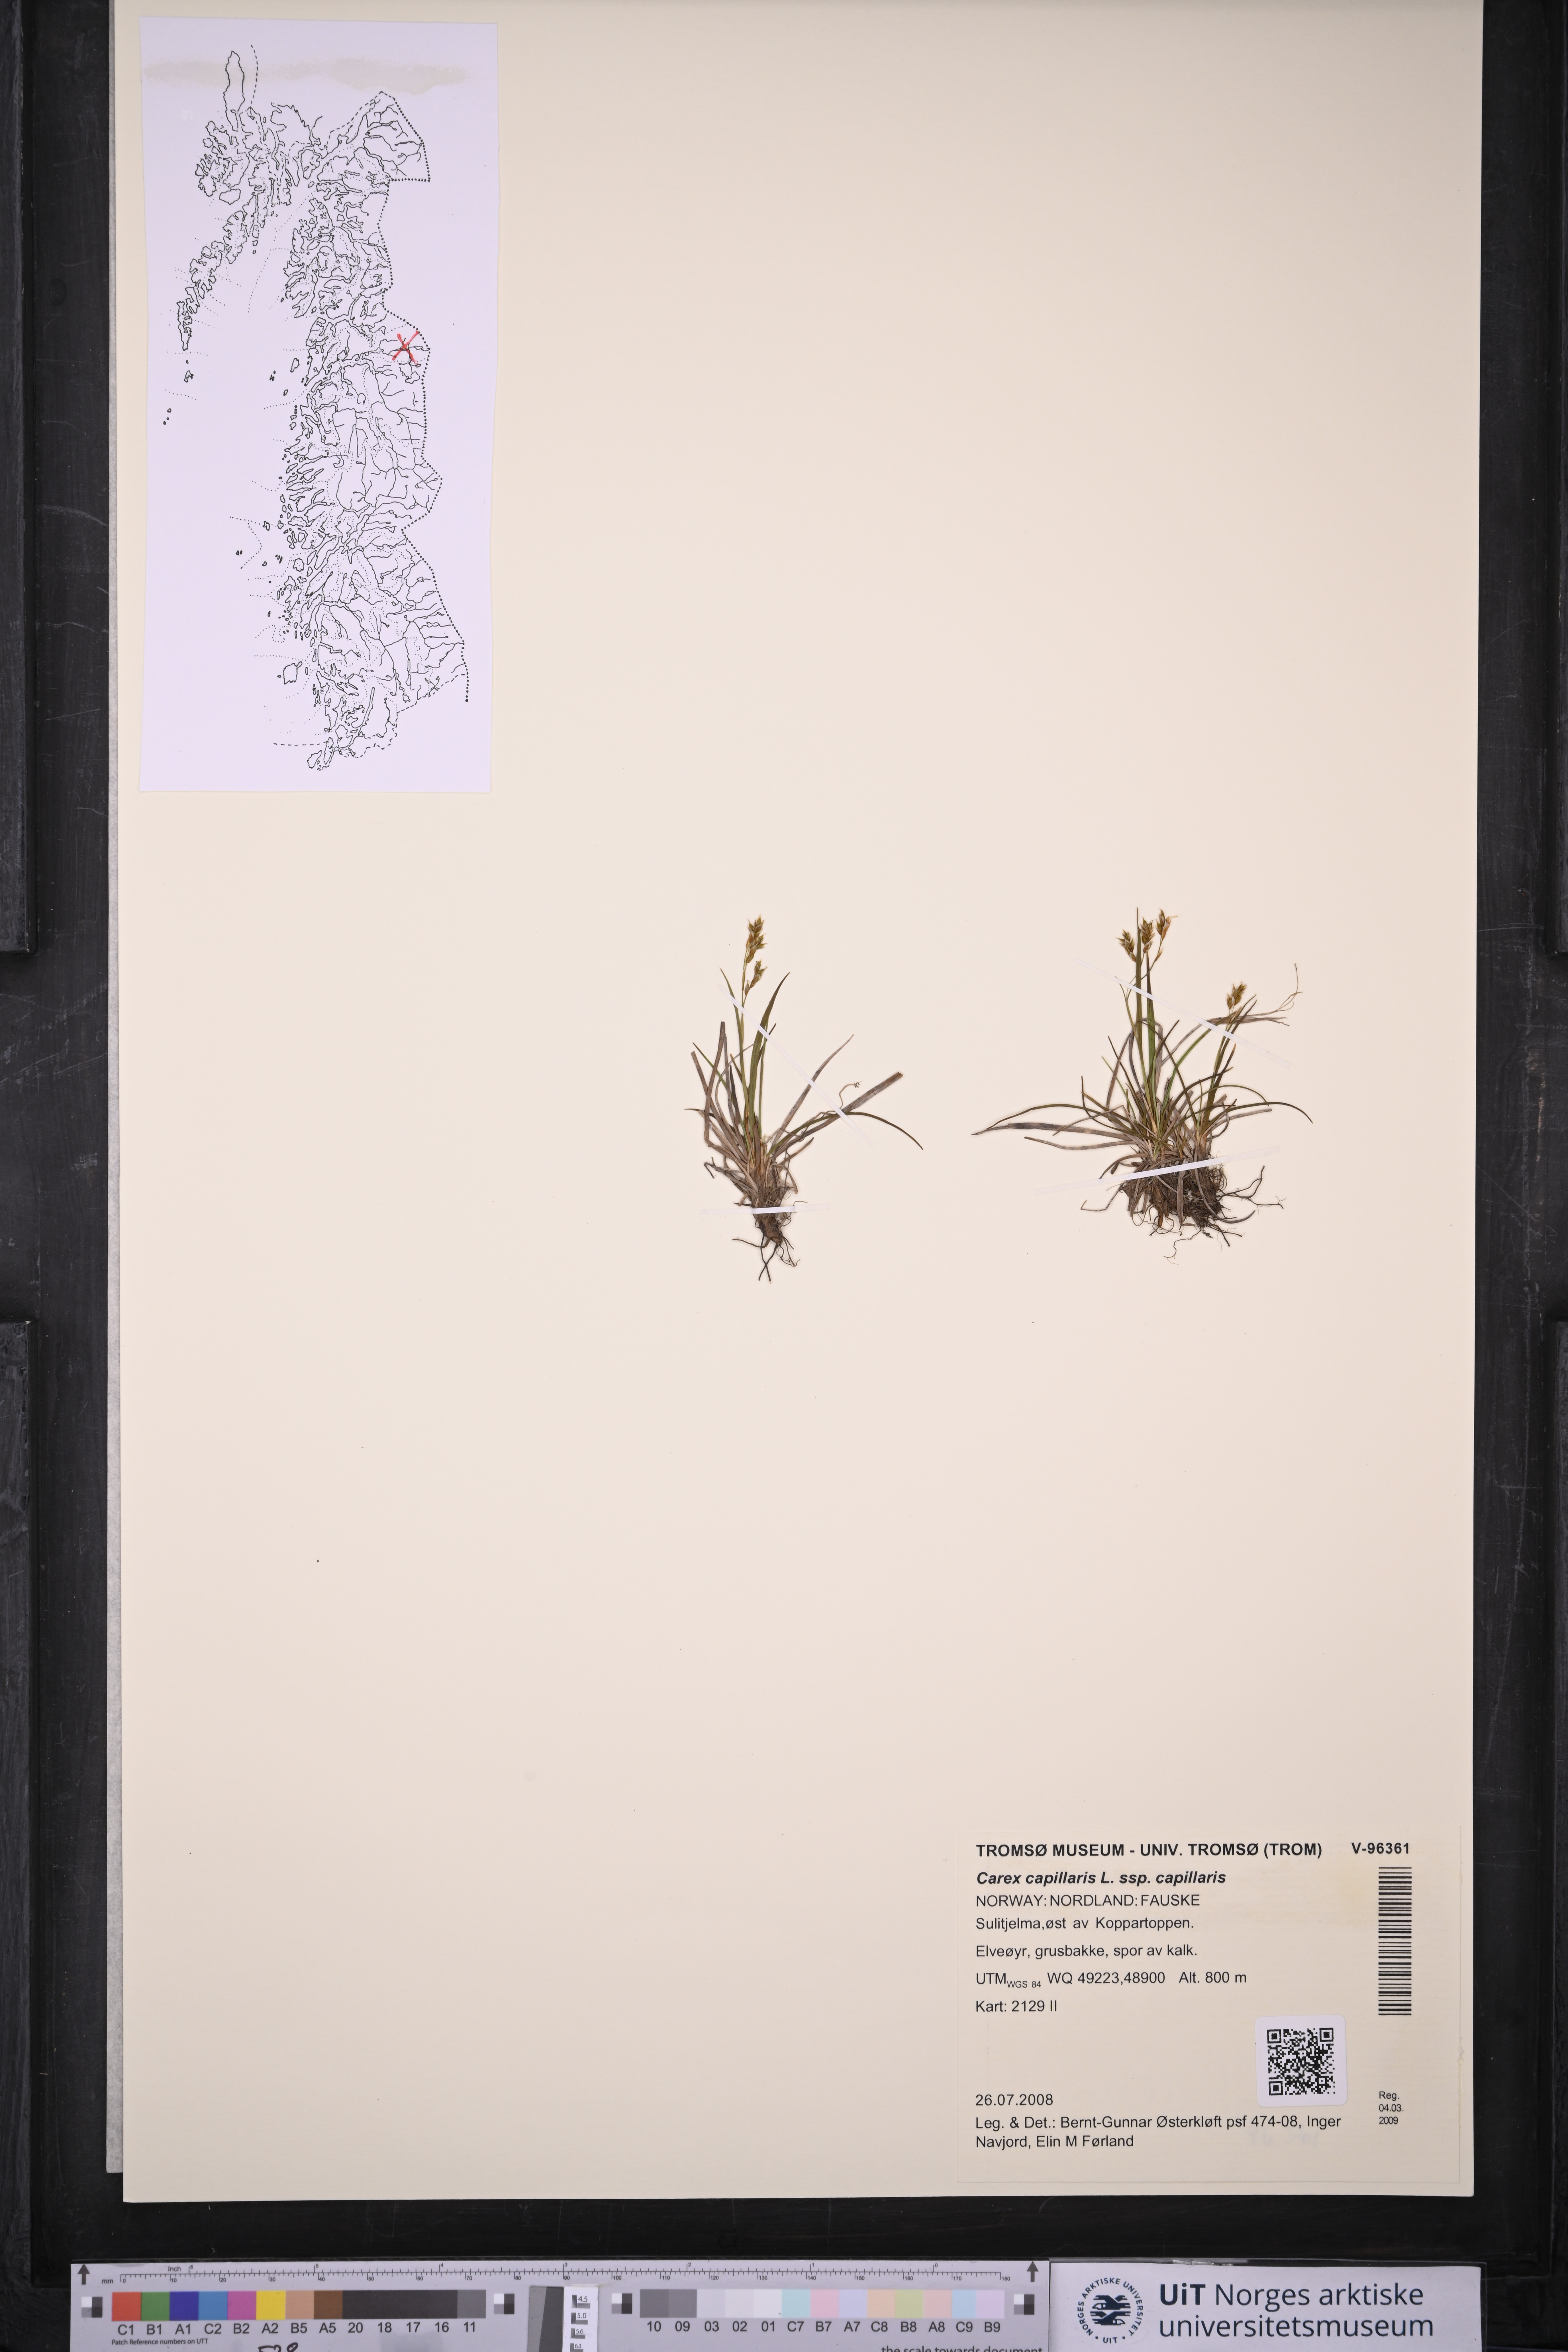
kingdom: Plantae
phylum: Tracheophyta
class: Liliopsida
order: Poales
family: Cyperaceae
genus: Carex
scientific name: Carex capillaris
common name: Hair sedge
